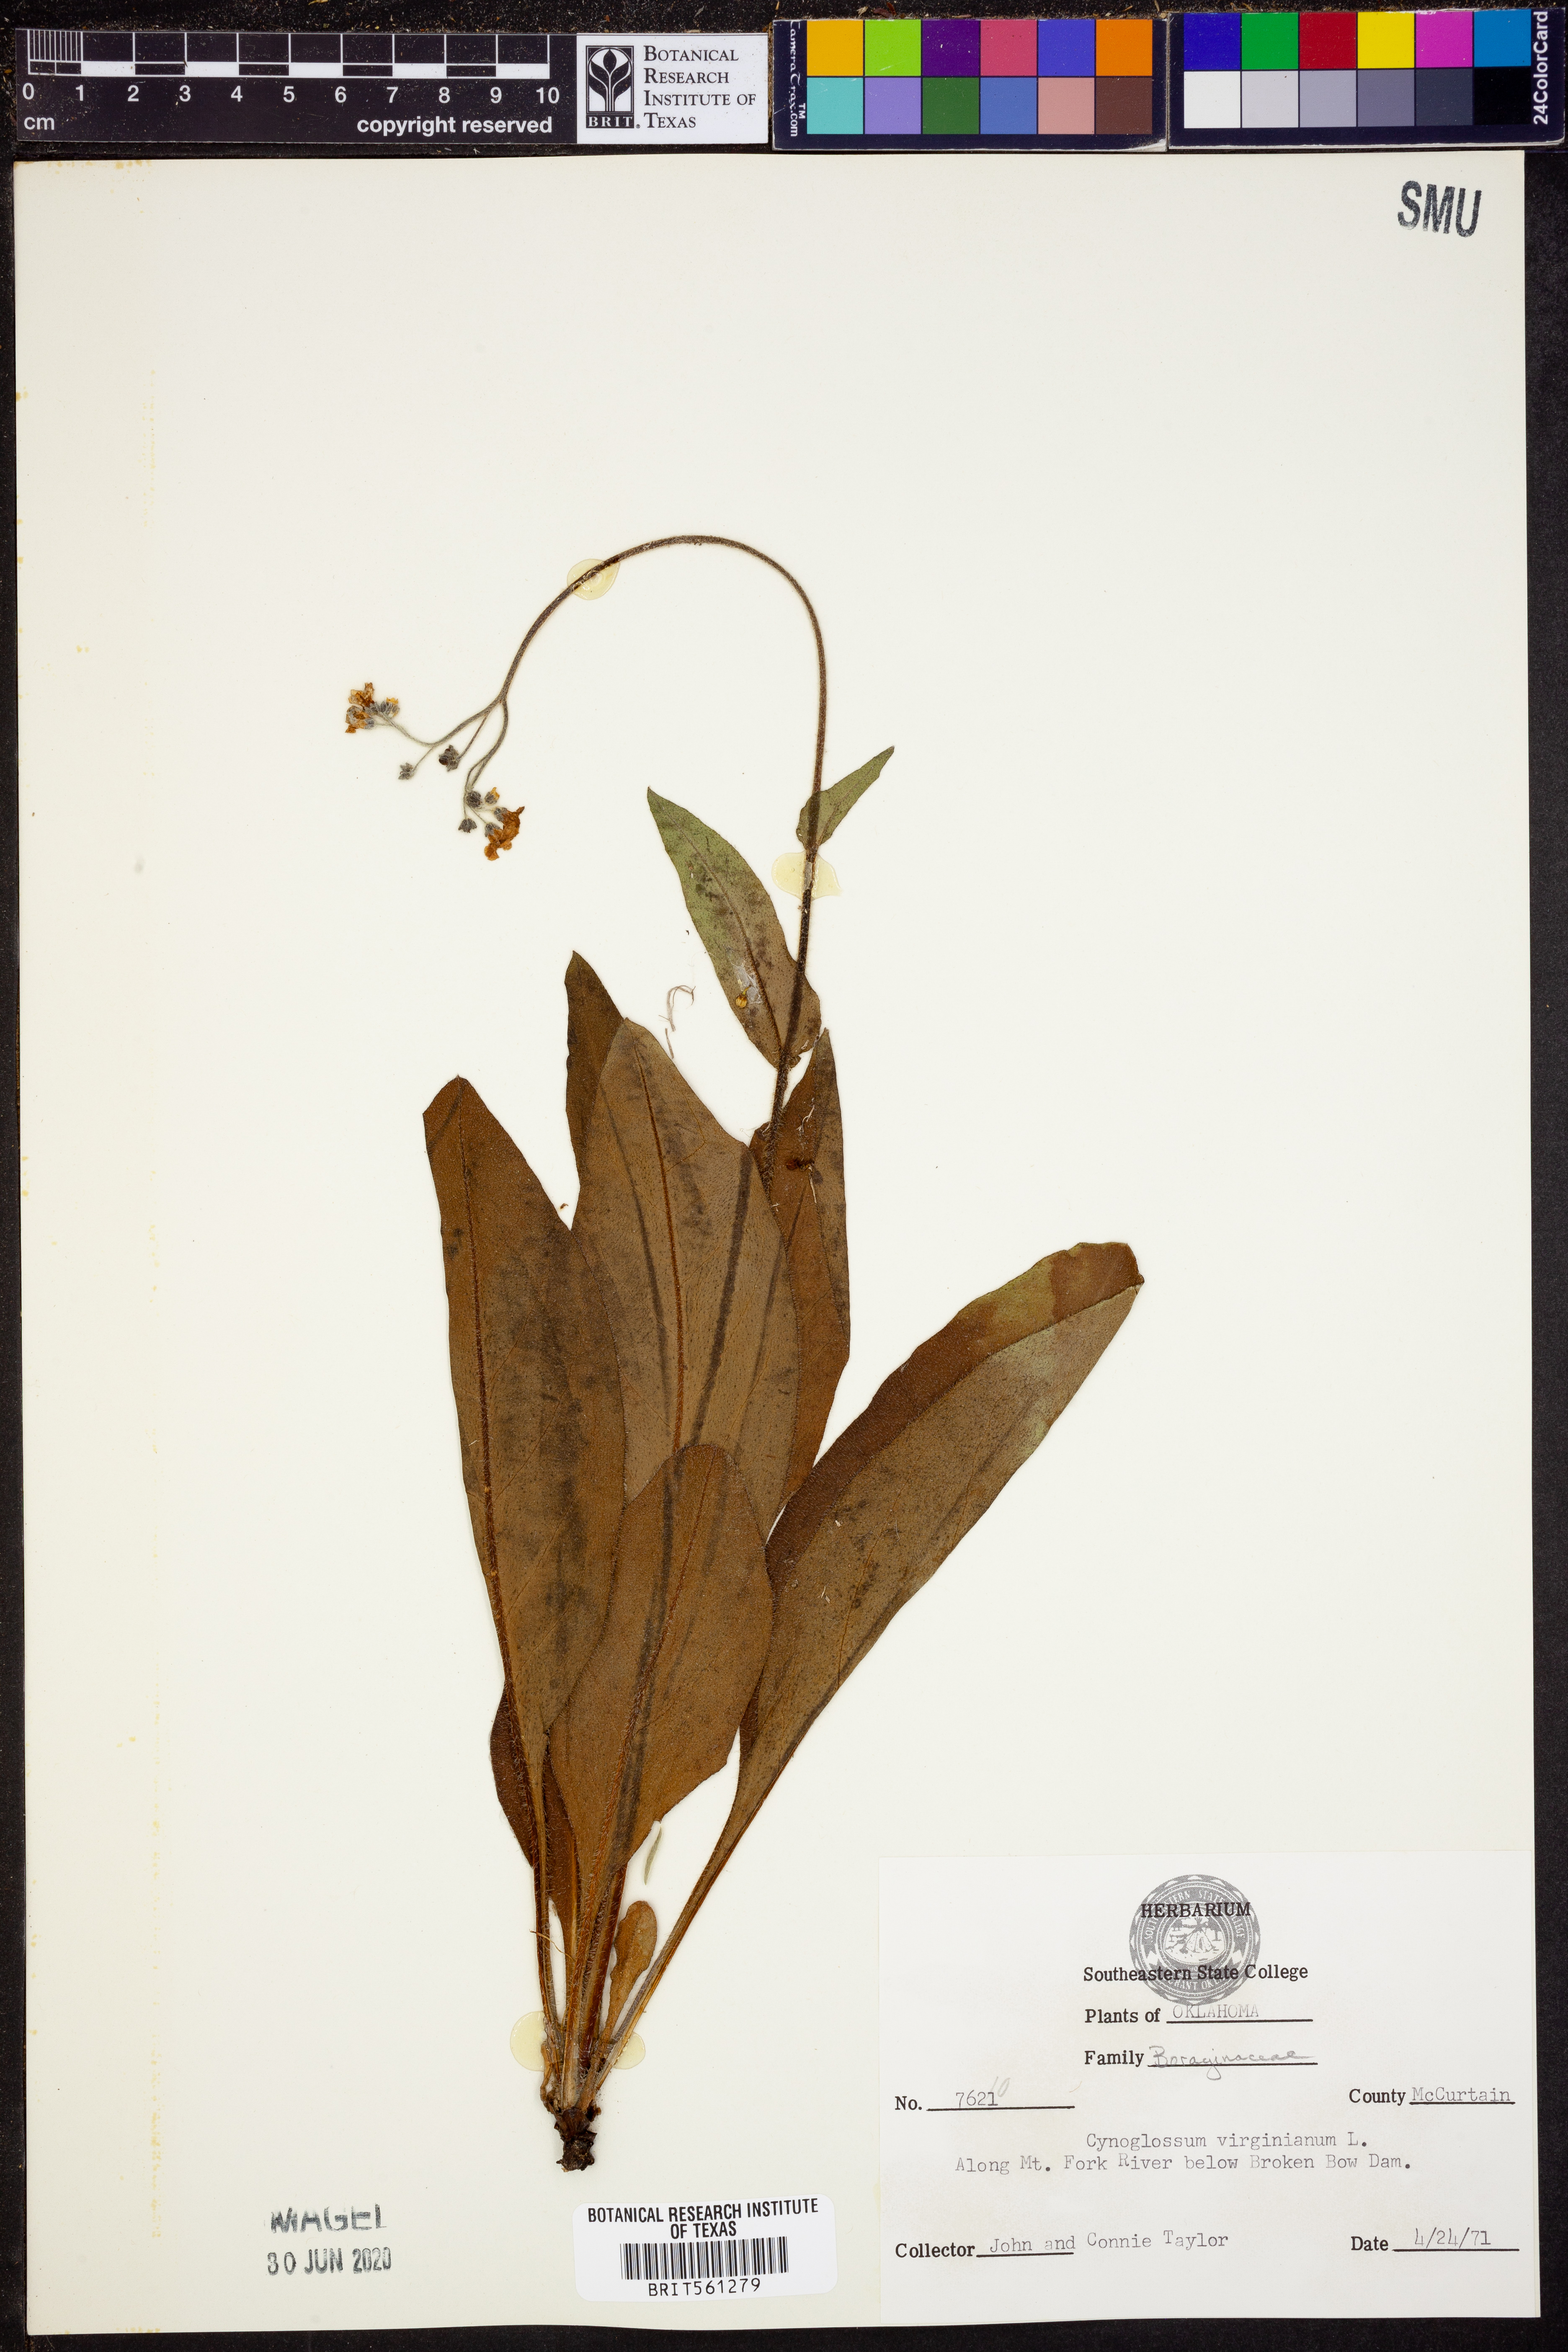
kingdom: Plantae
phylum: Tracheophyta
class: Magnoliopsida
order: Boraginales
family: Boraginaceae
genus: Andersonglossum
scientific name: Andersonglossum virginianum
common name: Wild comfrey
